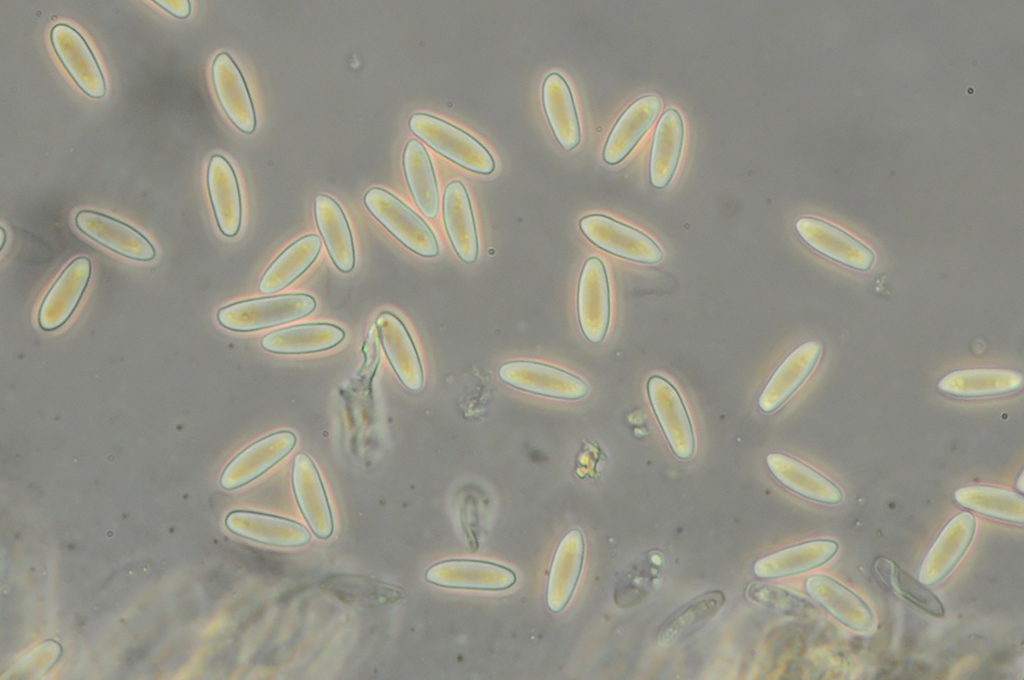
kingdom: Fungi
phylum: Ascomycota
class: Leotiomycetes
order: Helotiales
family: Helotiaceae
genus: Hymenoscyphus
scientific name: Hymenoscyphus calyculus
